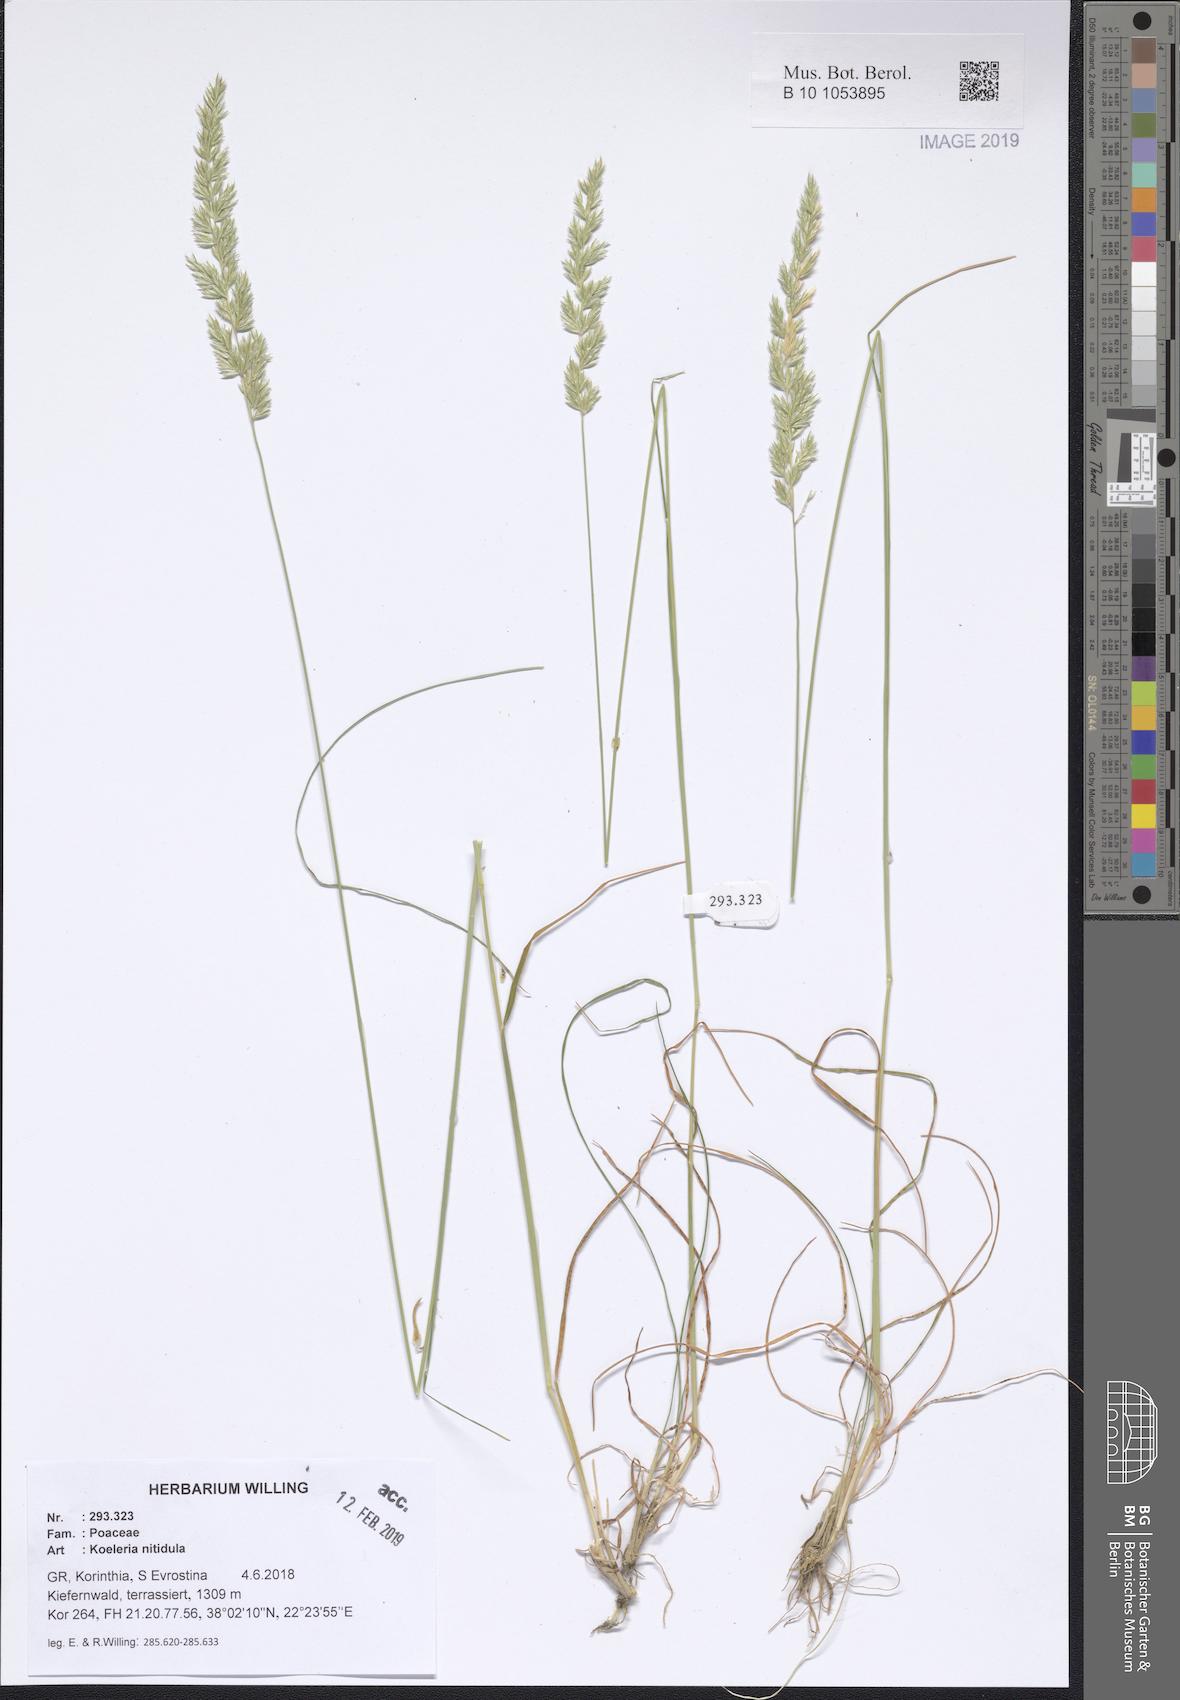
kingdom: Plantae
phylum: Tracheophyta
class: Liliopsida
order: Poales
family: Poaceae
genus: Koeleria
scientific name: Koeleria nitidula
